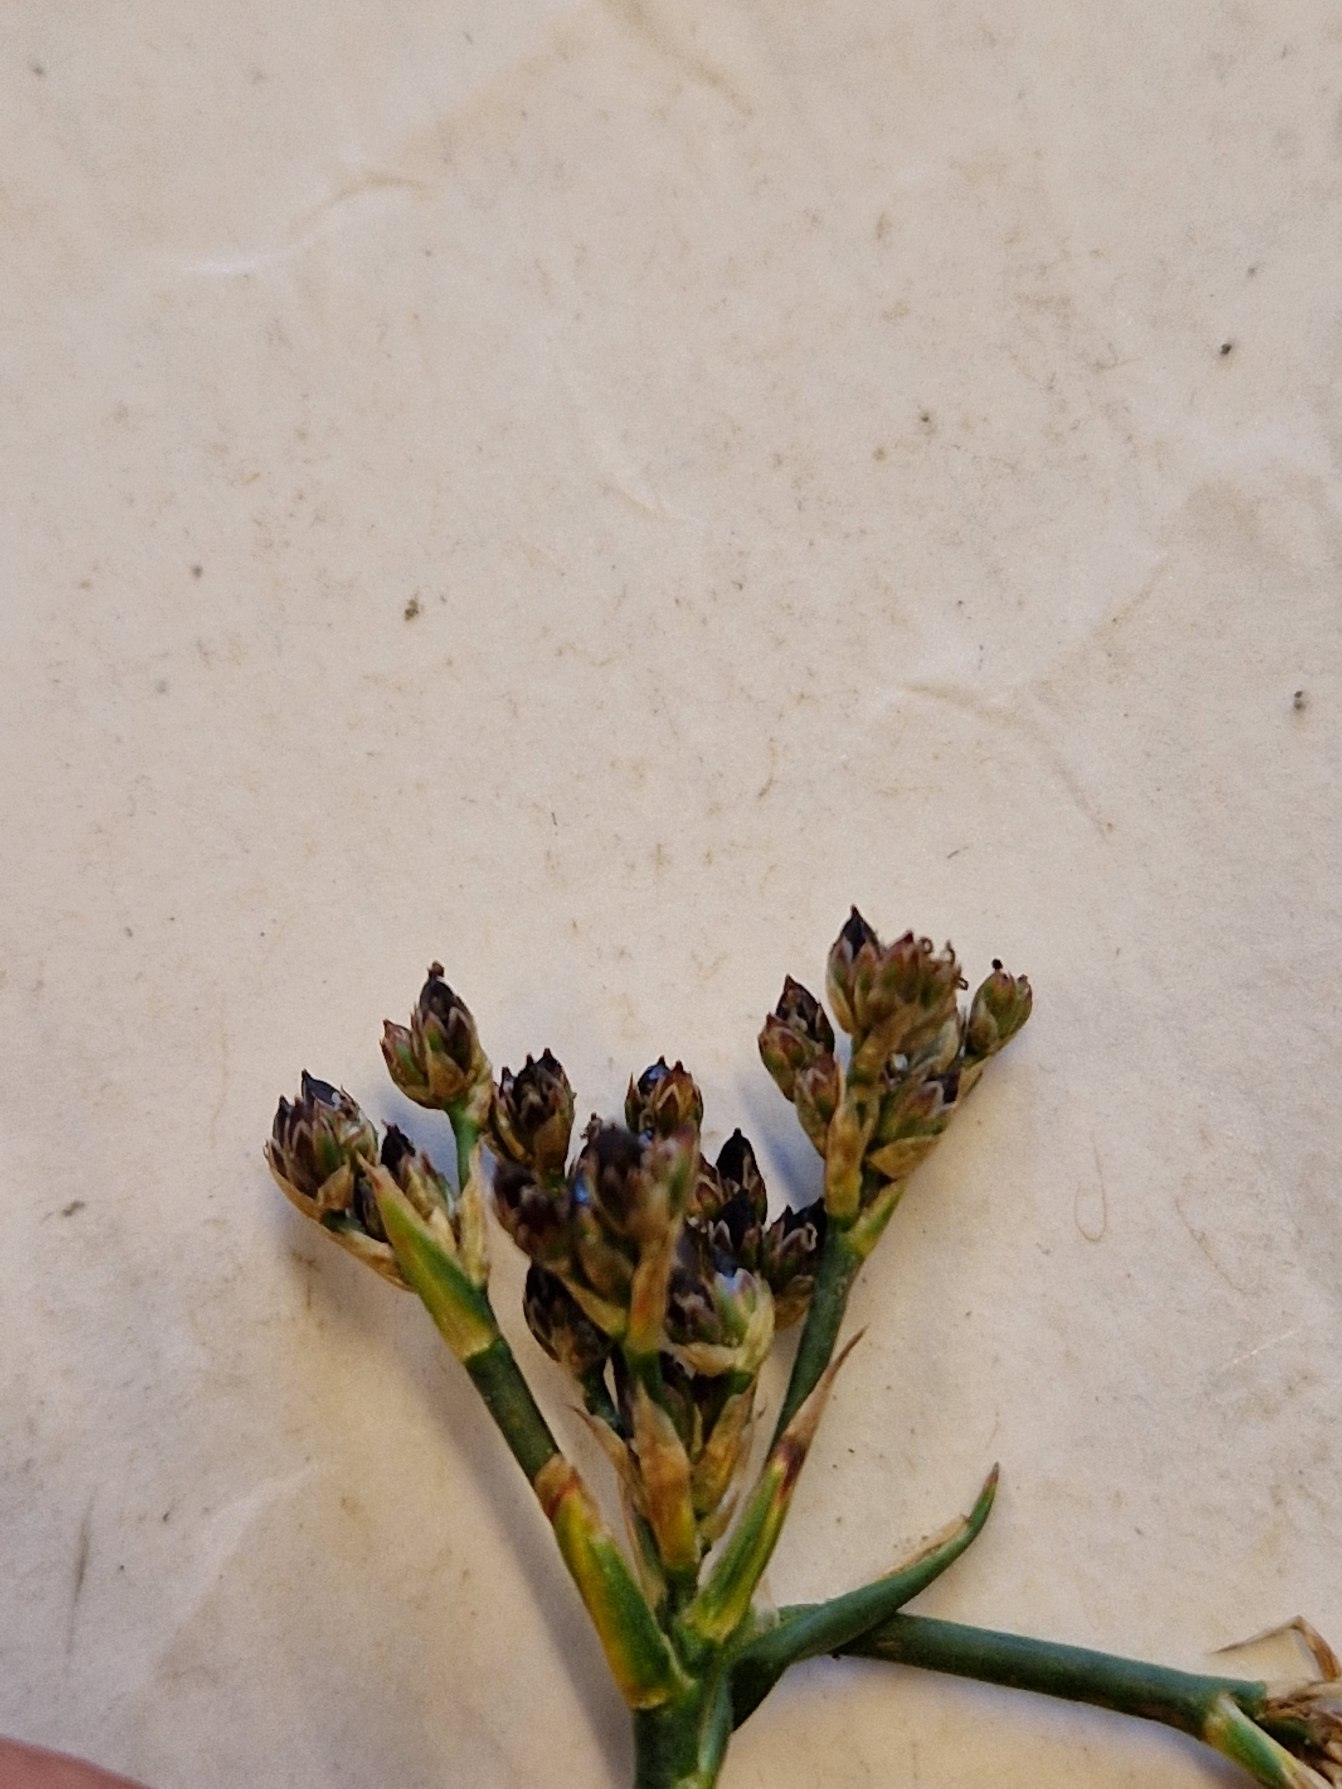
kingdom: Plantae
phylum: Tracheophyta
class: Liliopsida
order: Poales
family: Juncaceae
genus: Juncus
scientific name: Juncus articulatus
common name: Glanskapslet siv
